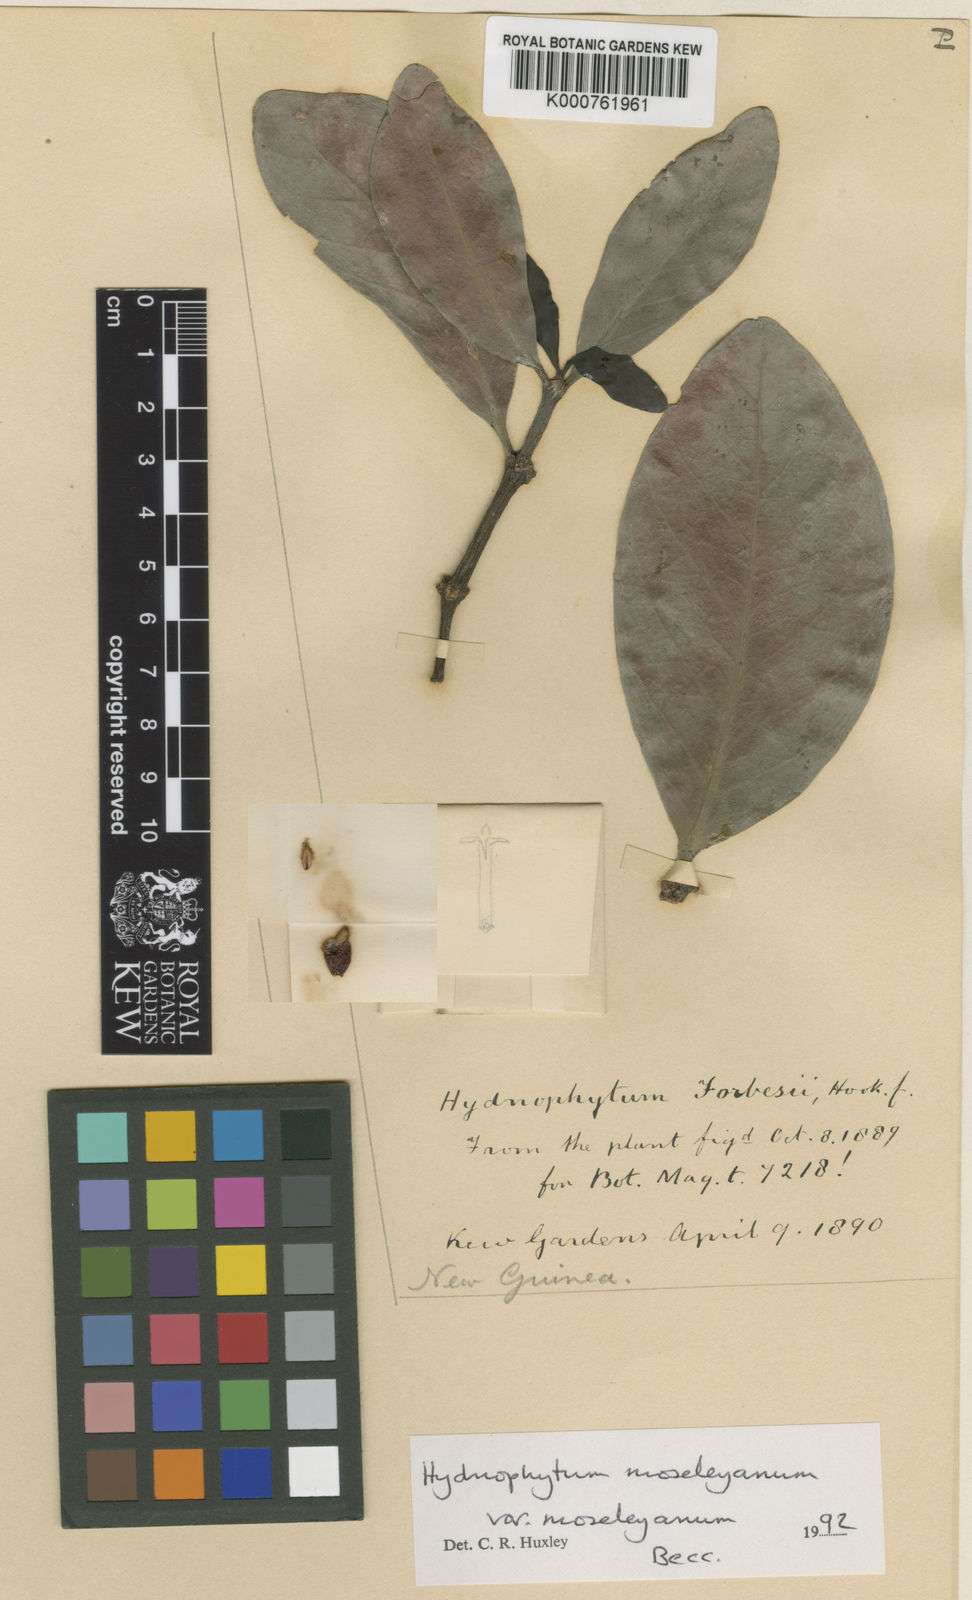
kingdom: Plantae
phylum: Tracheophyta
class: Magnoliopsida
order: Gentianales
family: Rubiaceae
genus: Hydnophytum
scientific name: Hydnophytum moseleyanum
